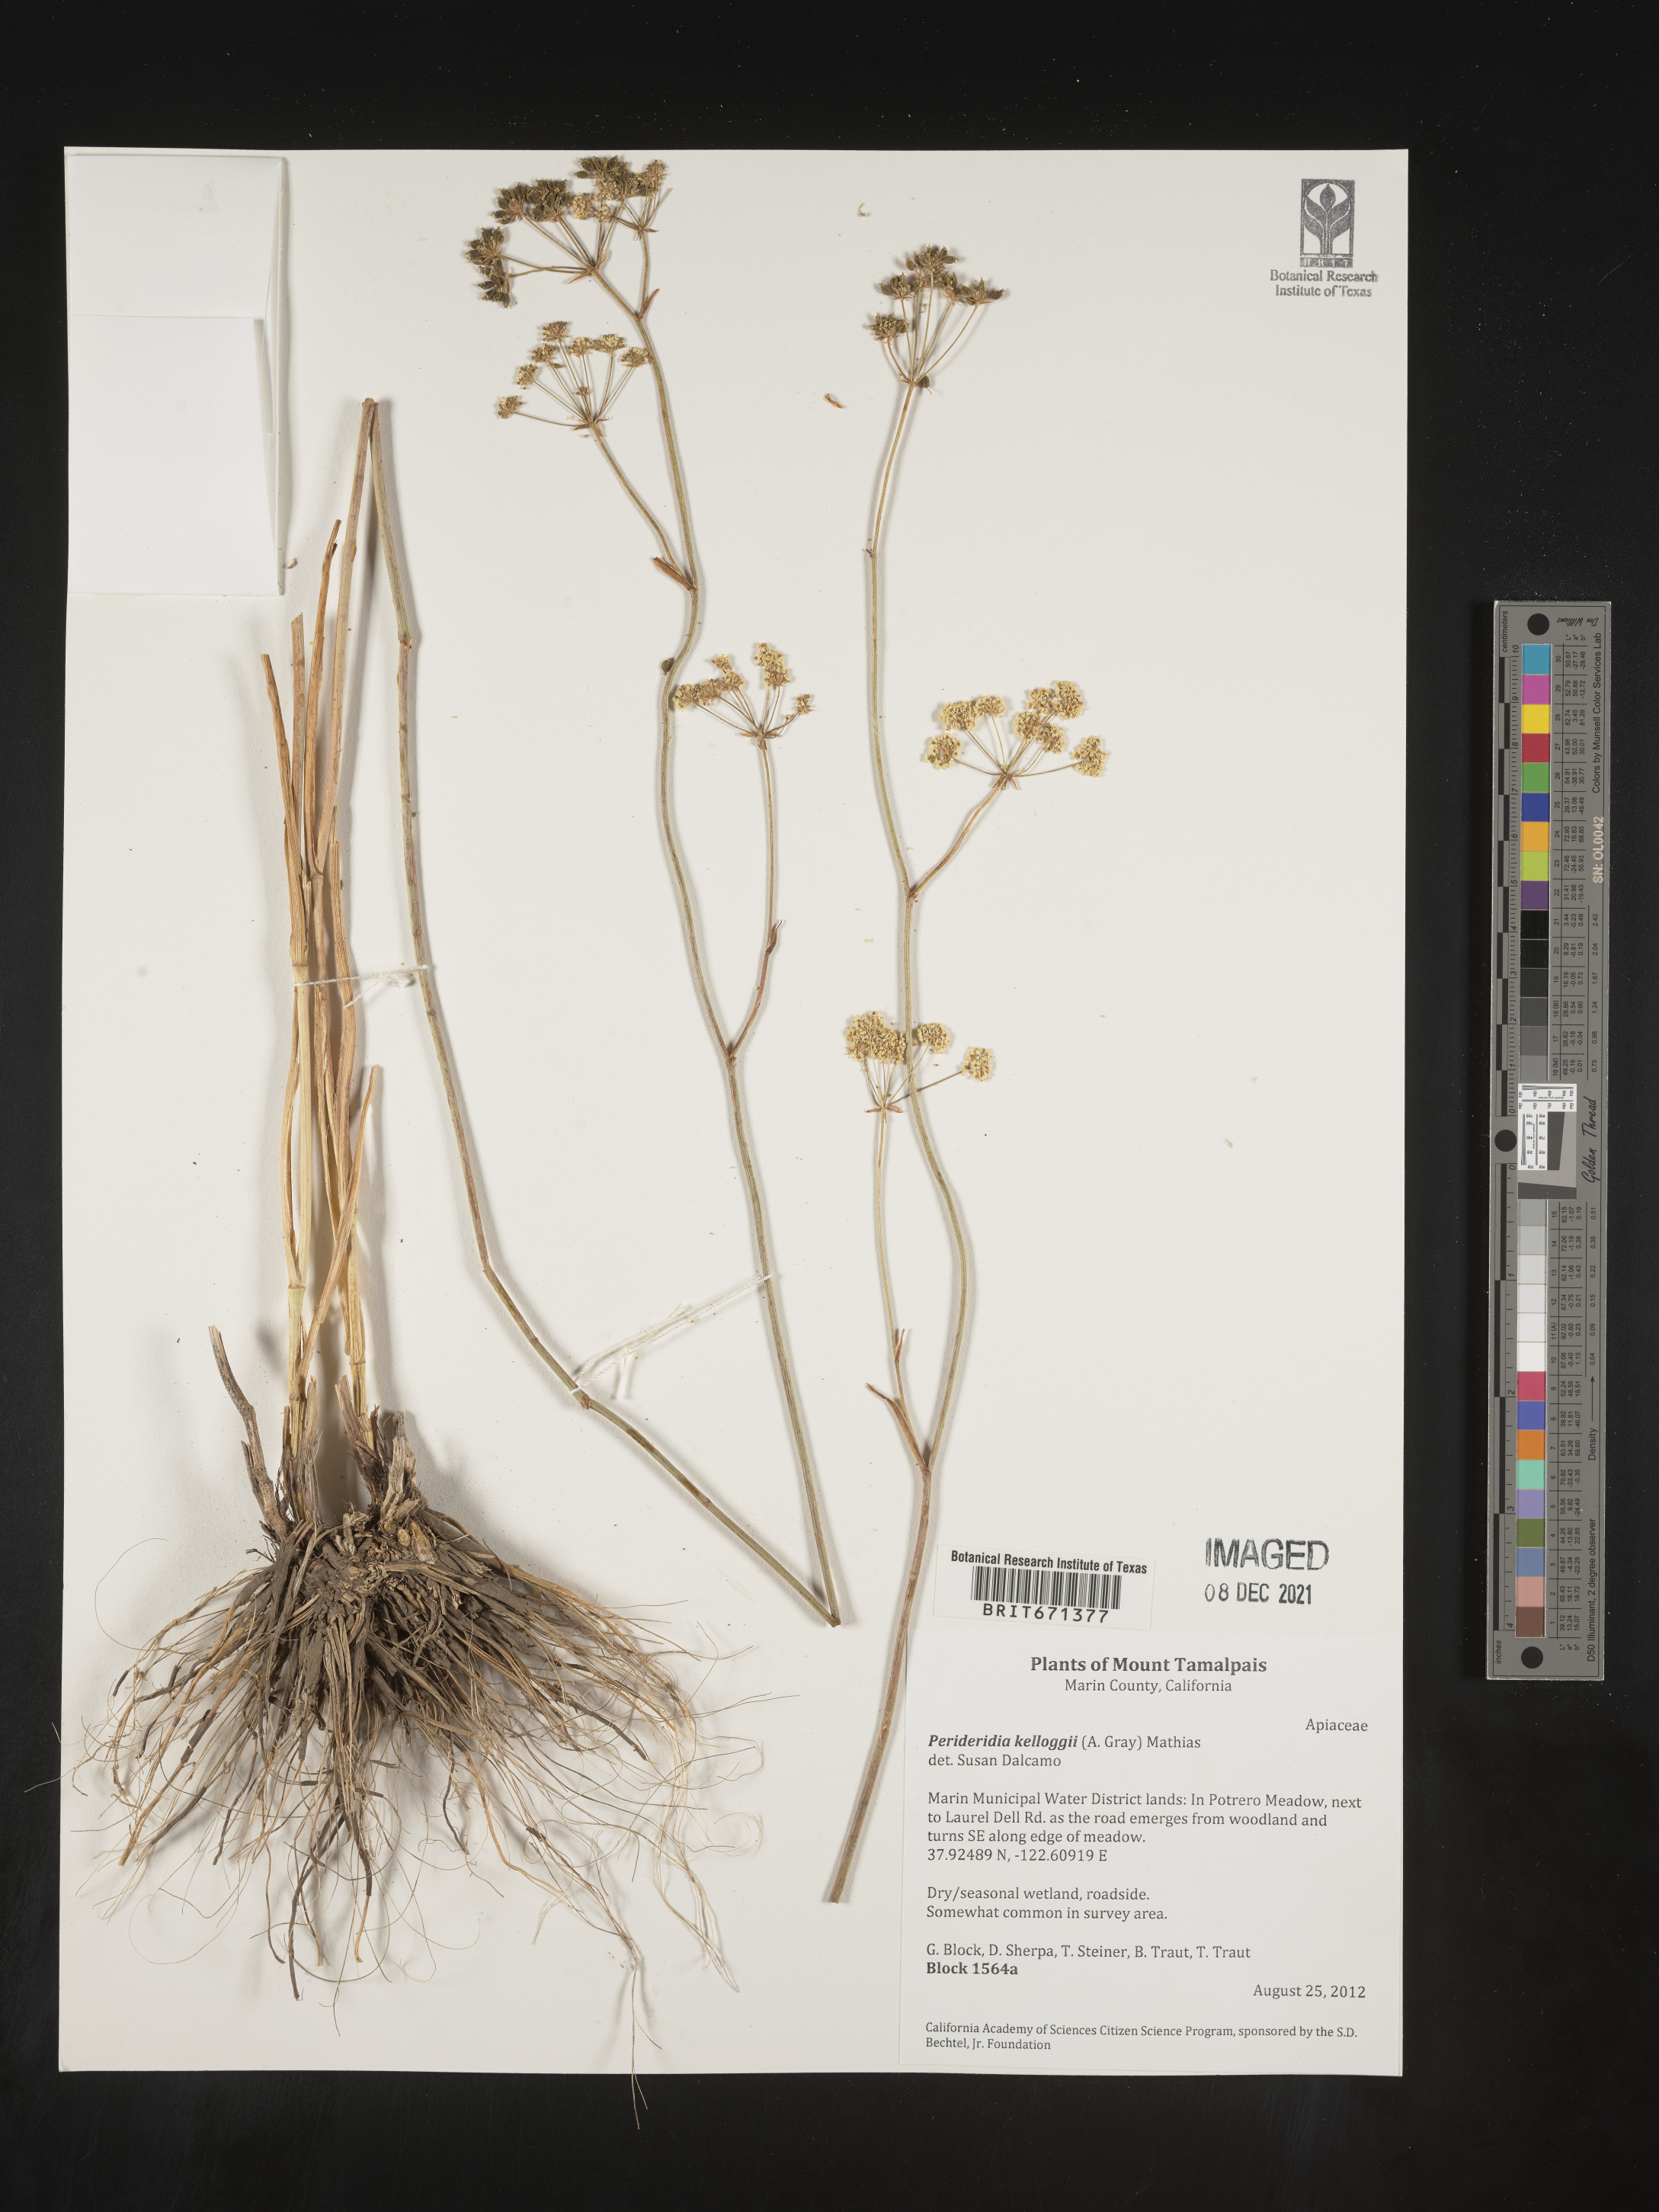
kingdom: Plantae
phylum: Tracheophyta
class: Magnoliopsida
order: Apiales
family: Apiaceae
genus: Perideridia
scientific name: Perideridia kelloggii
